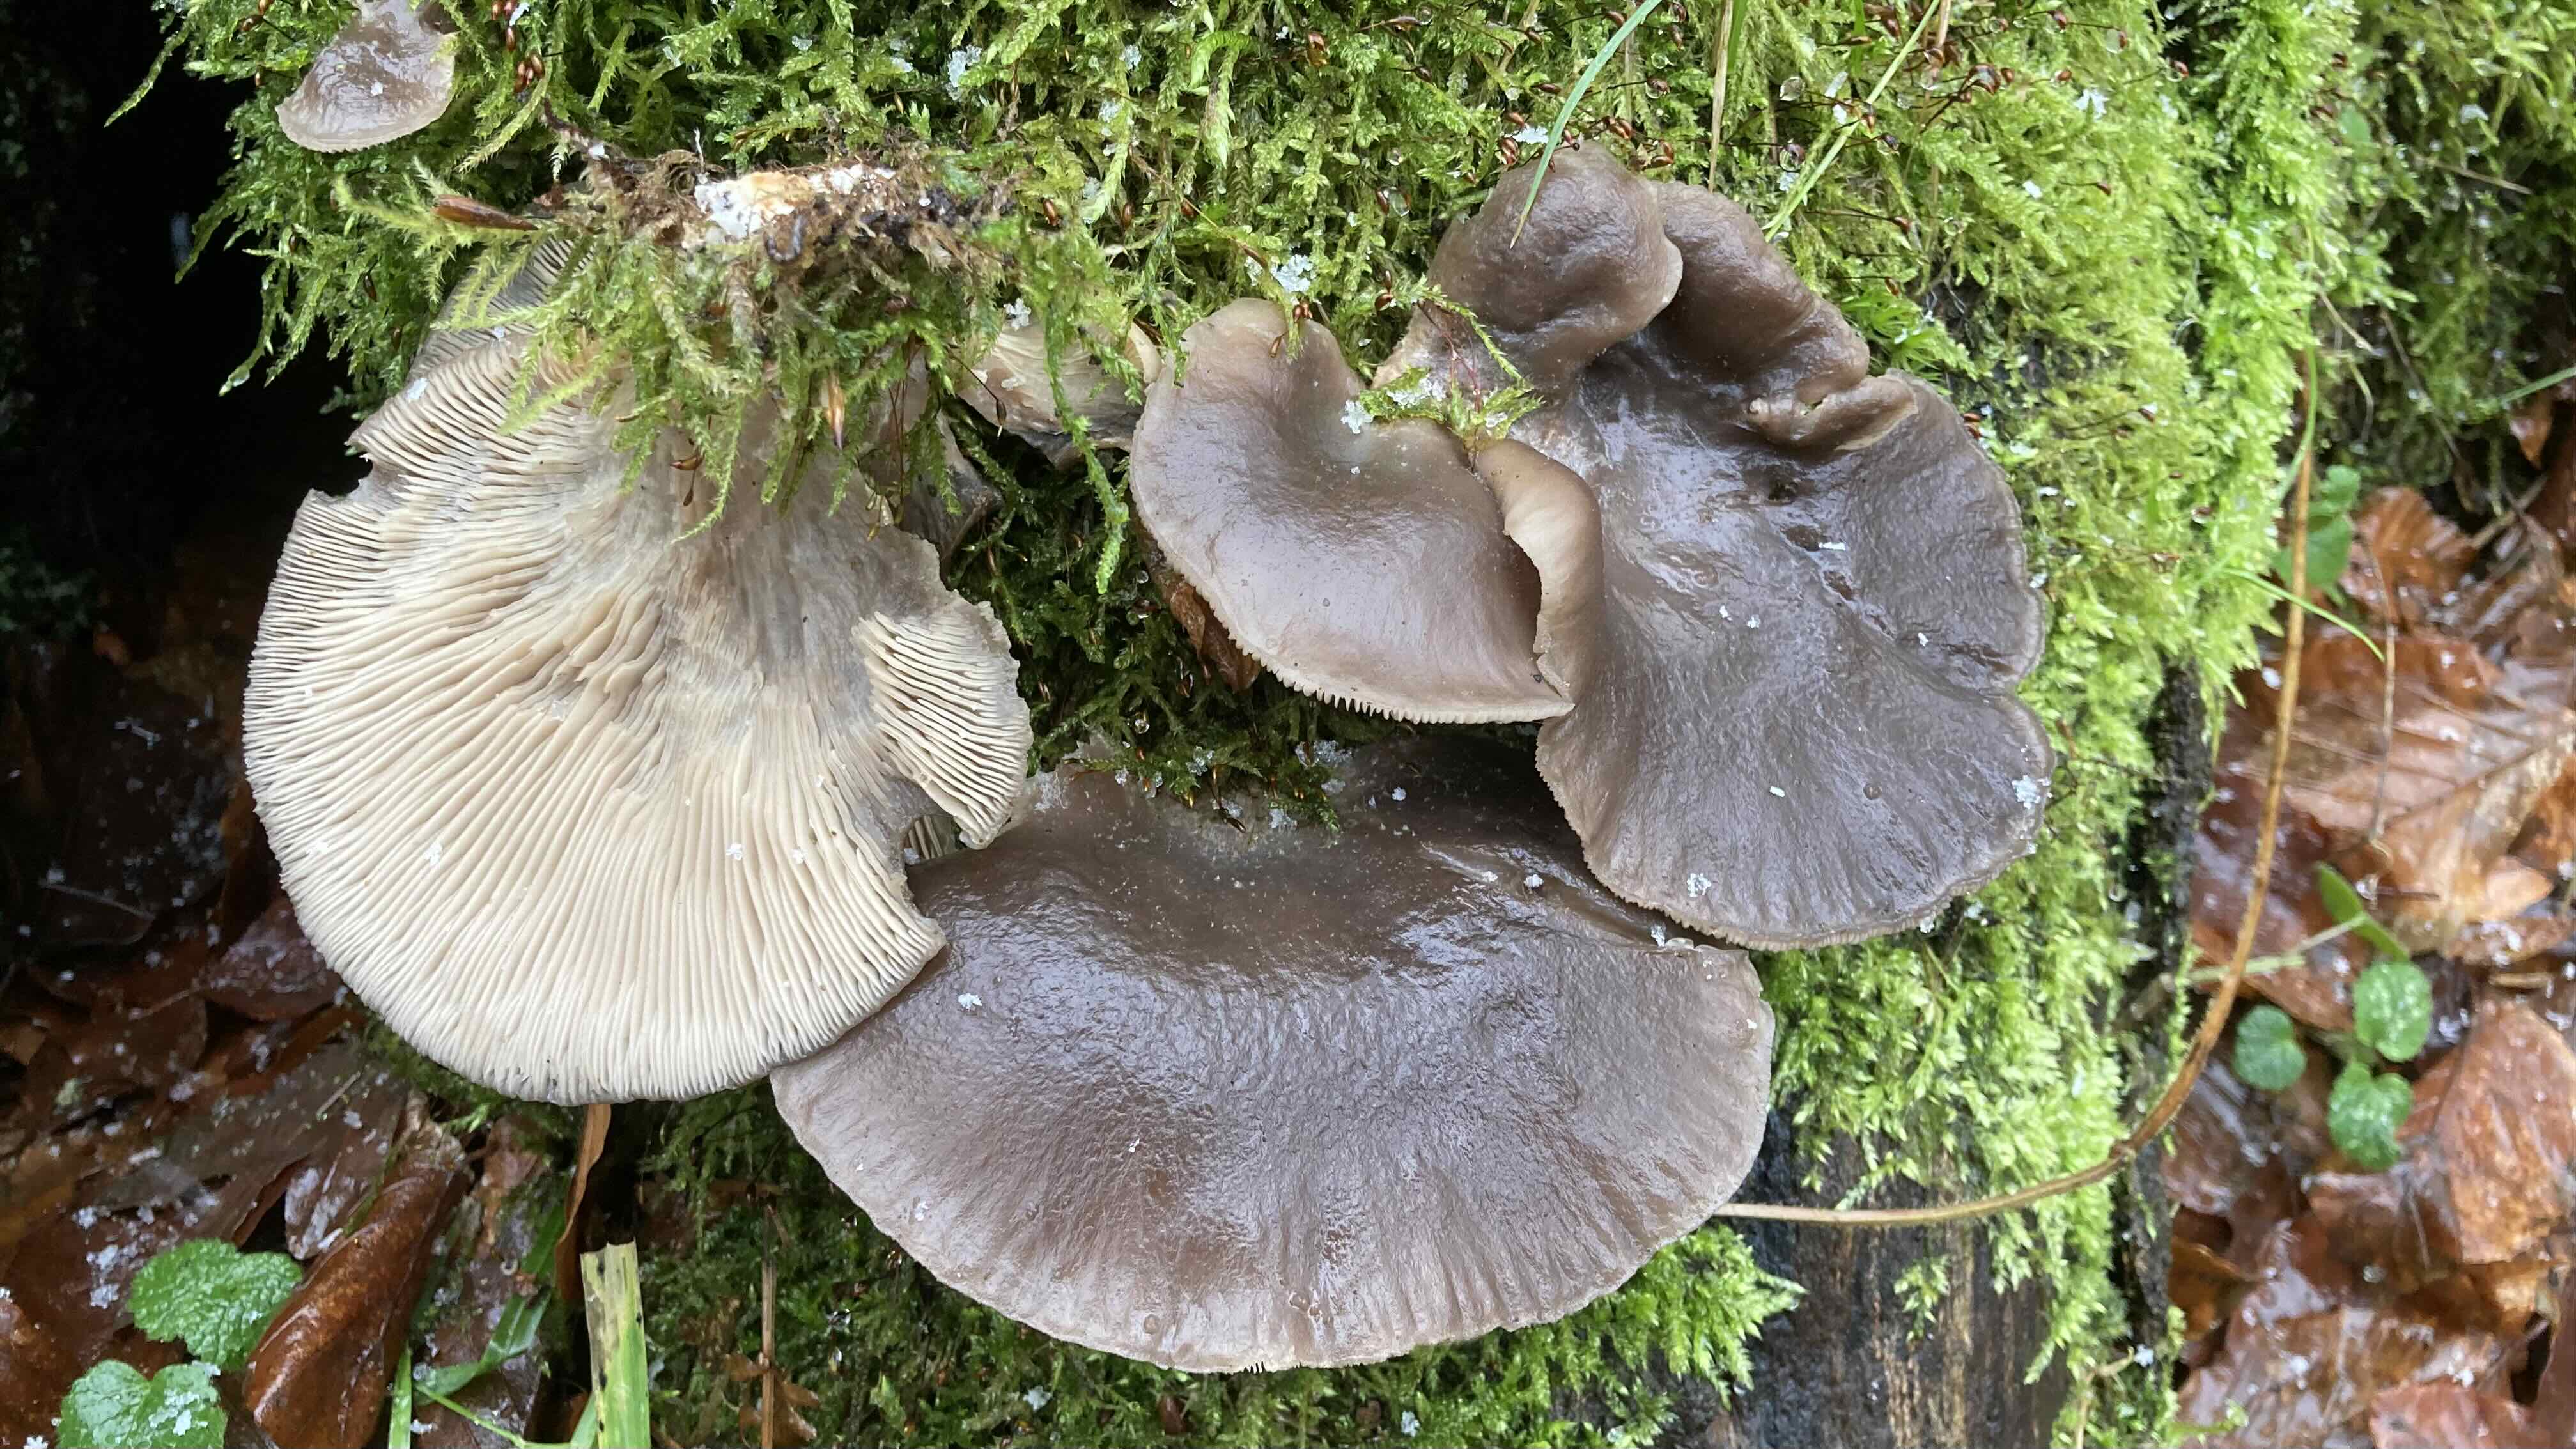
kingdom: Fungi
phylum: Basidiomycota
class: Agaricomycetes
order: Agaricales
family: Pleurotaceae
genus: Pleurotus
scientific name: Pleurotus ostreatus
